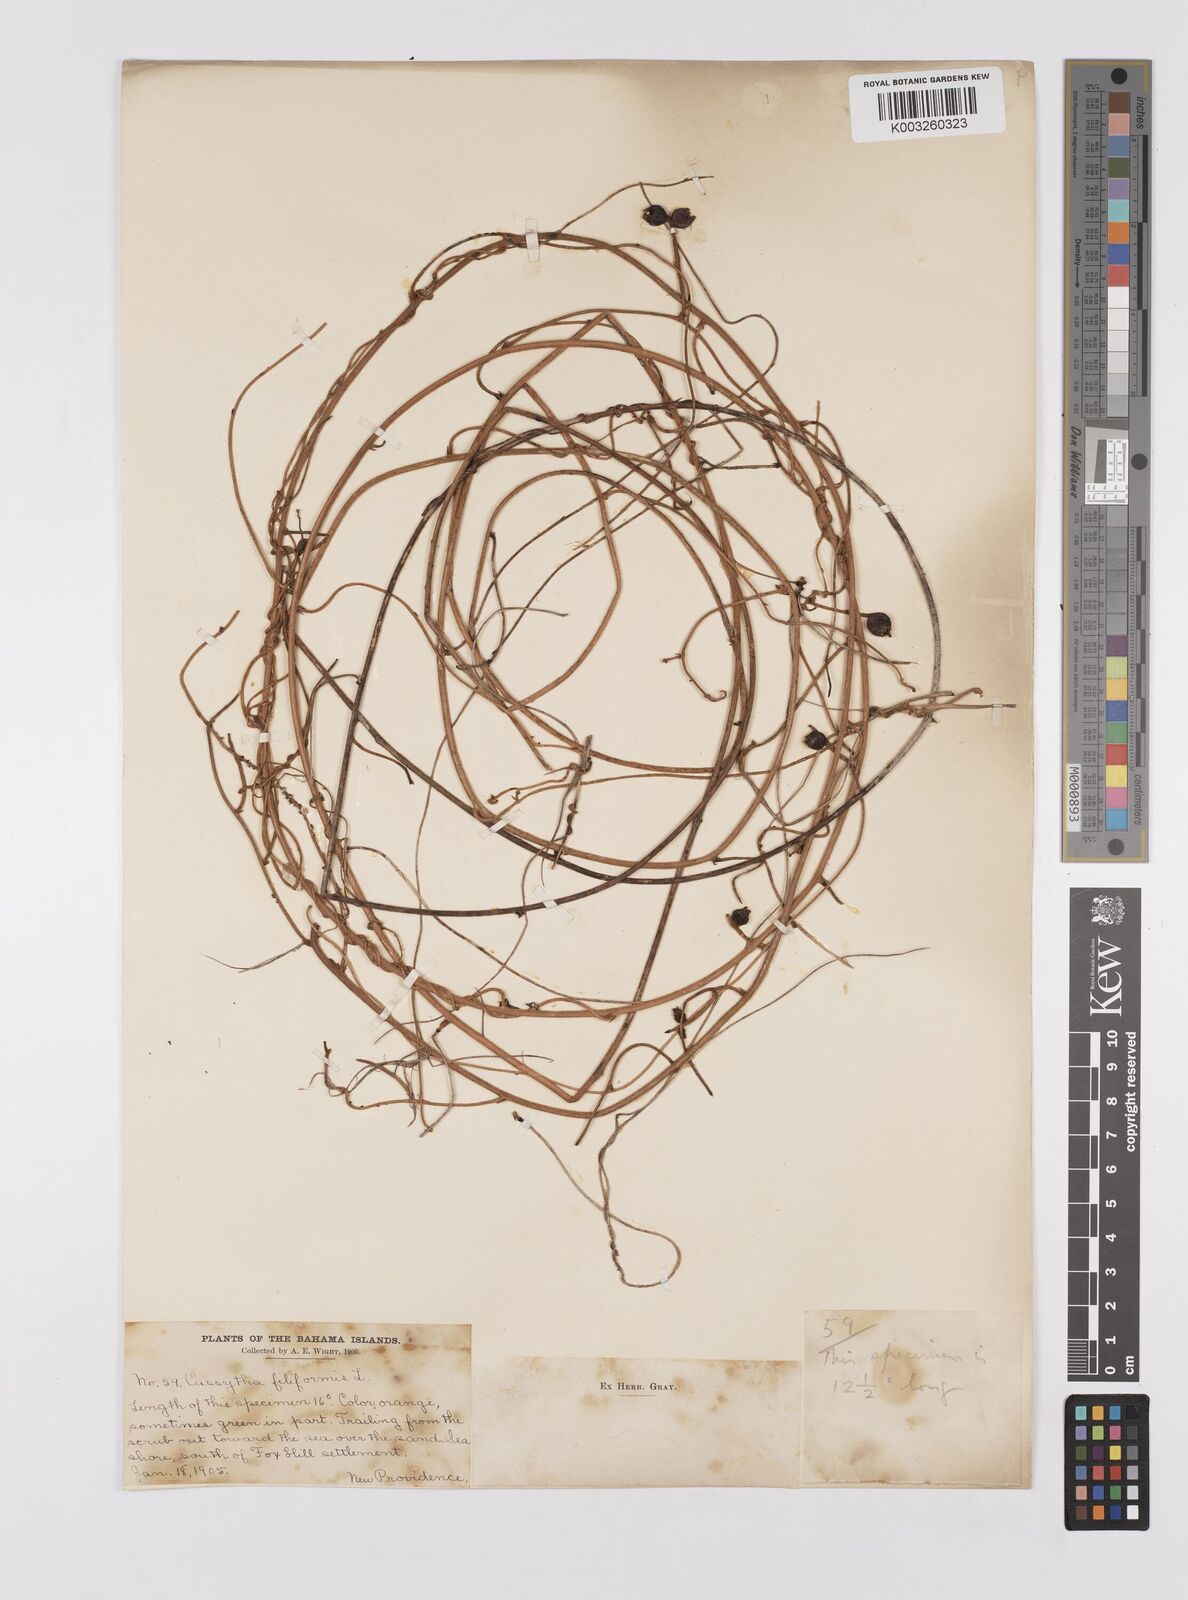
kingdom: Plantae
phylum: Tracheophyta
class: Magnoliopsida
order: Laurales
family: Lauraceae
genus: Cassytha
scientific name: Cassytha filiformis
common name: Dodder-laurel
